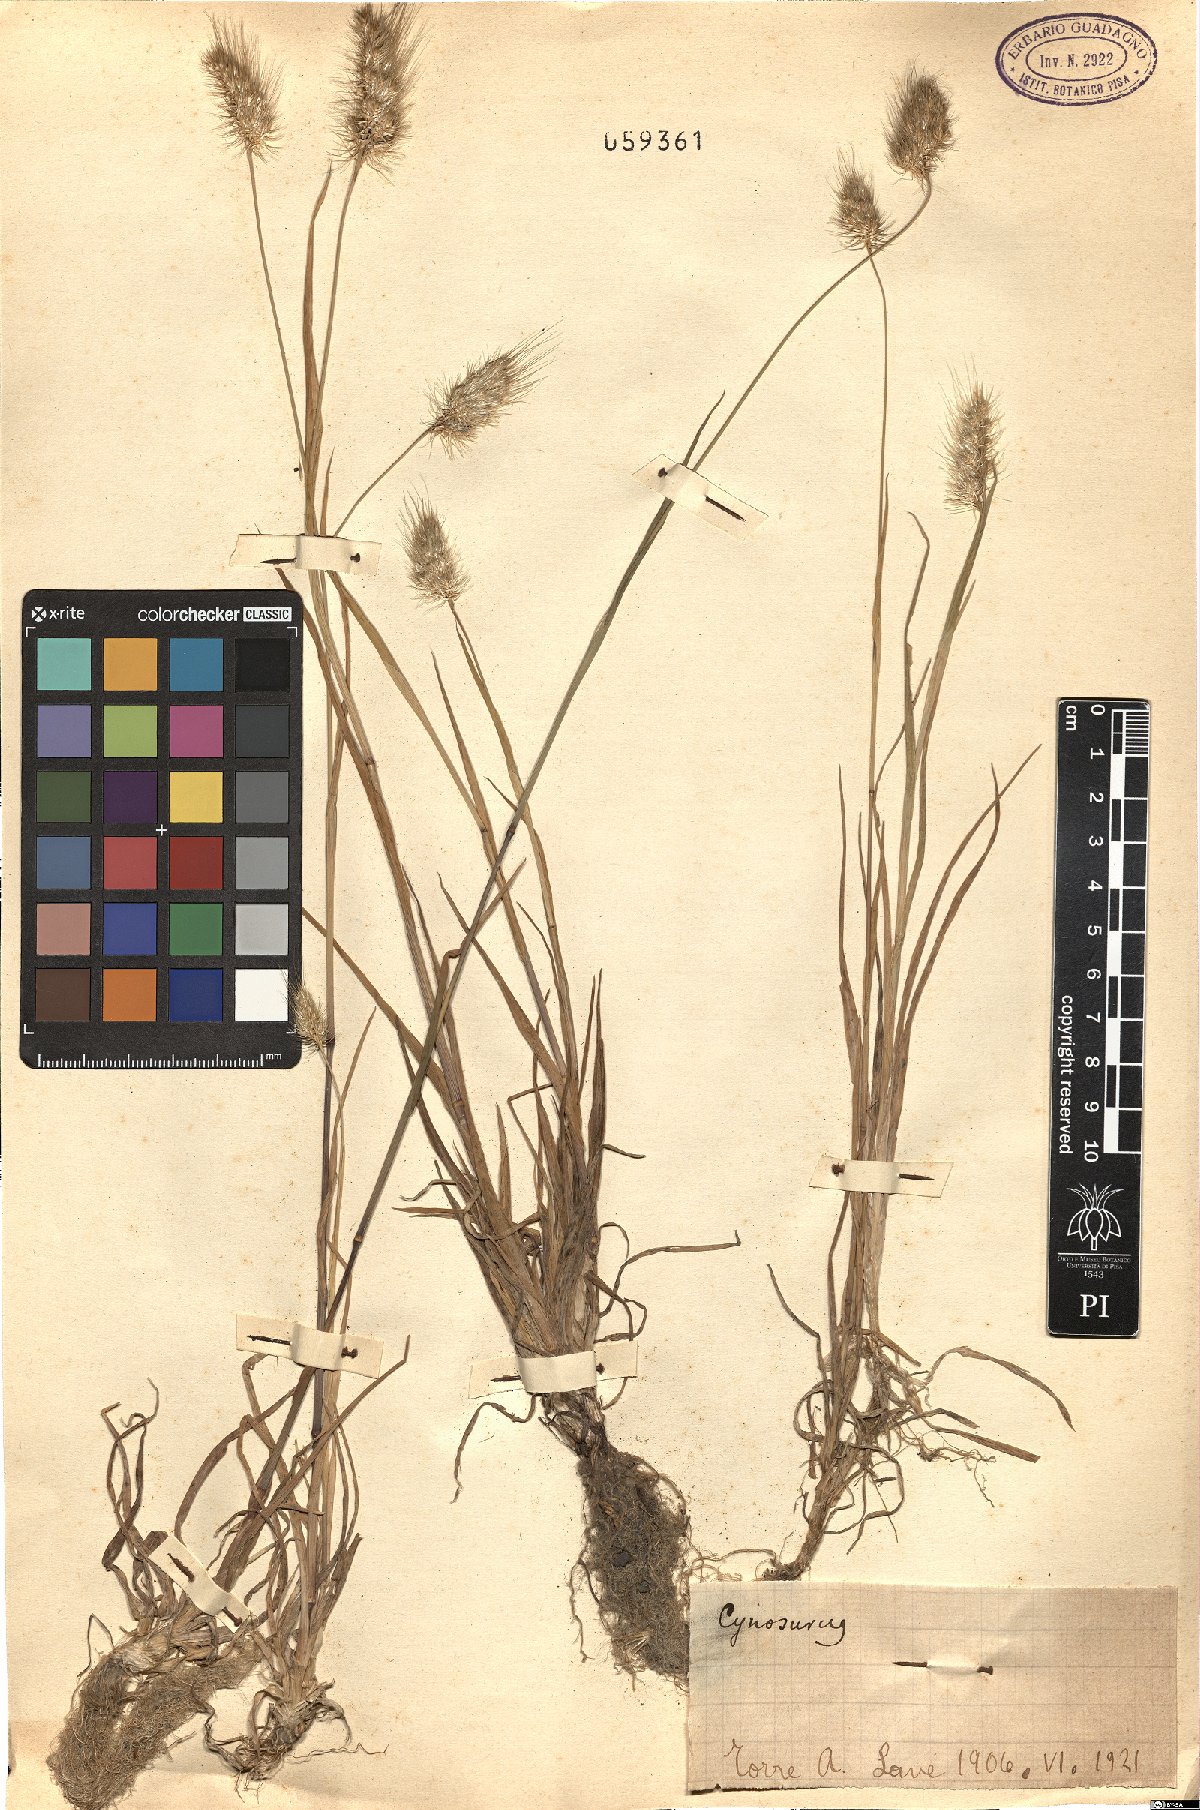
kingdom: Plantae
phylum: Tracheophyta
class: Liliopsida
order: Poales
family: Poaceae
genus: Cynosurus
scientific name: Cynosurus
